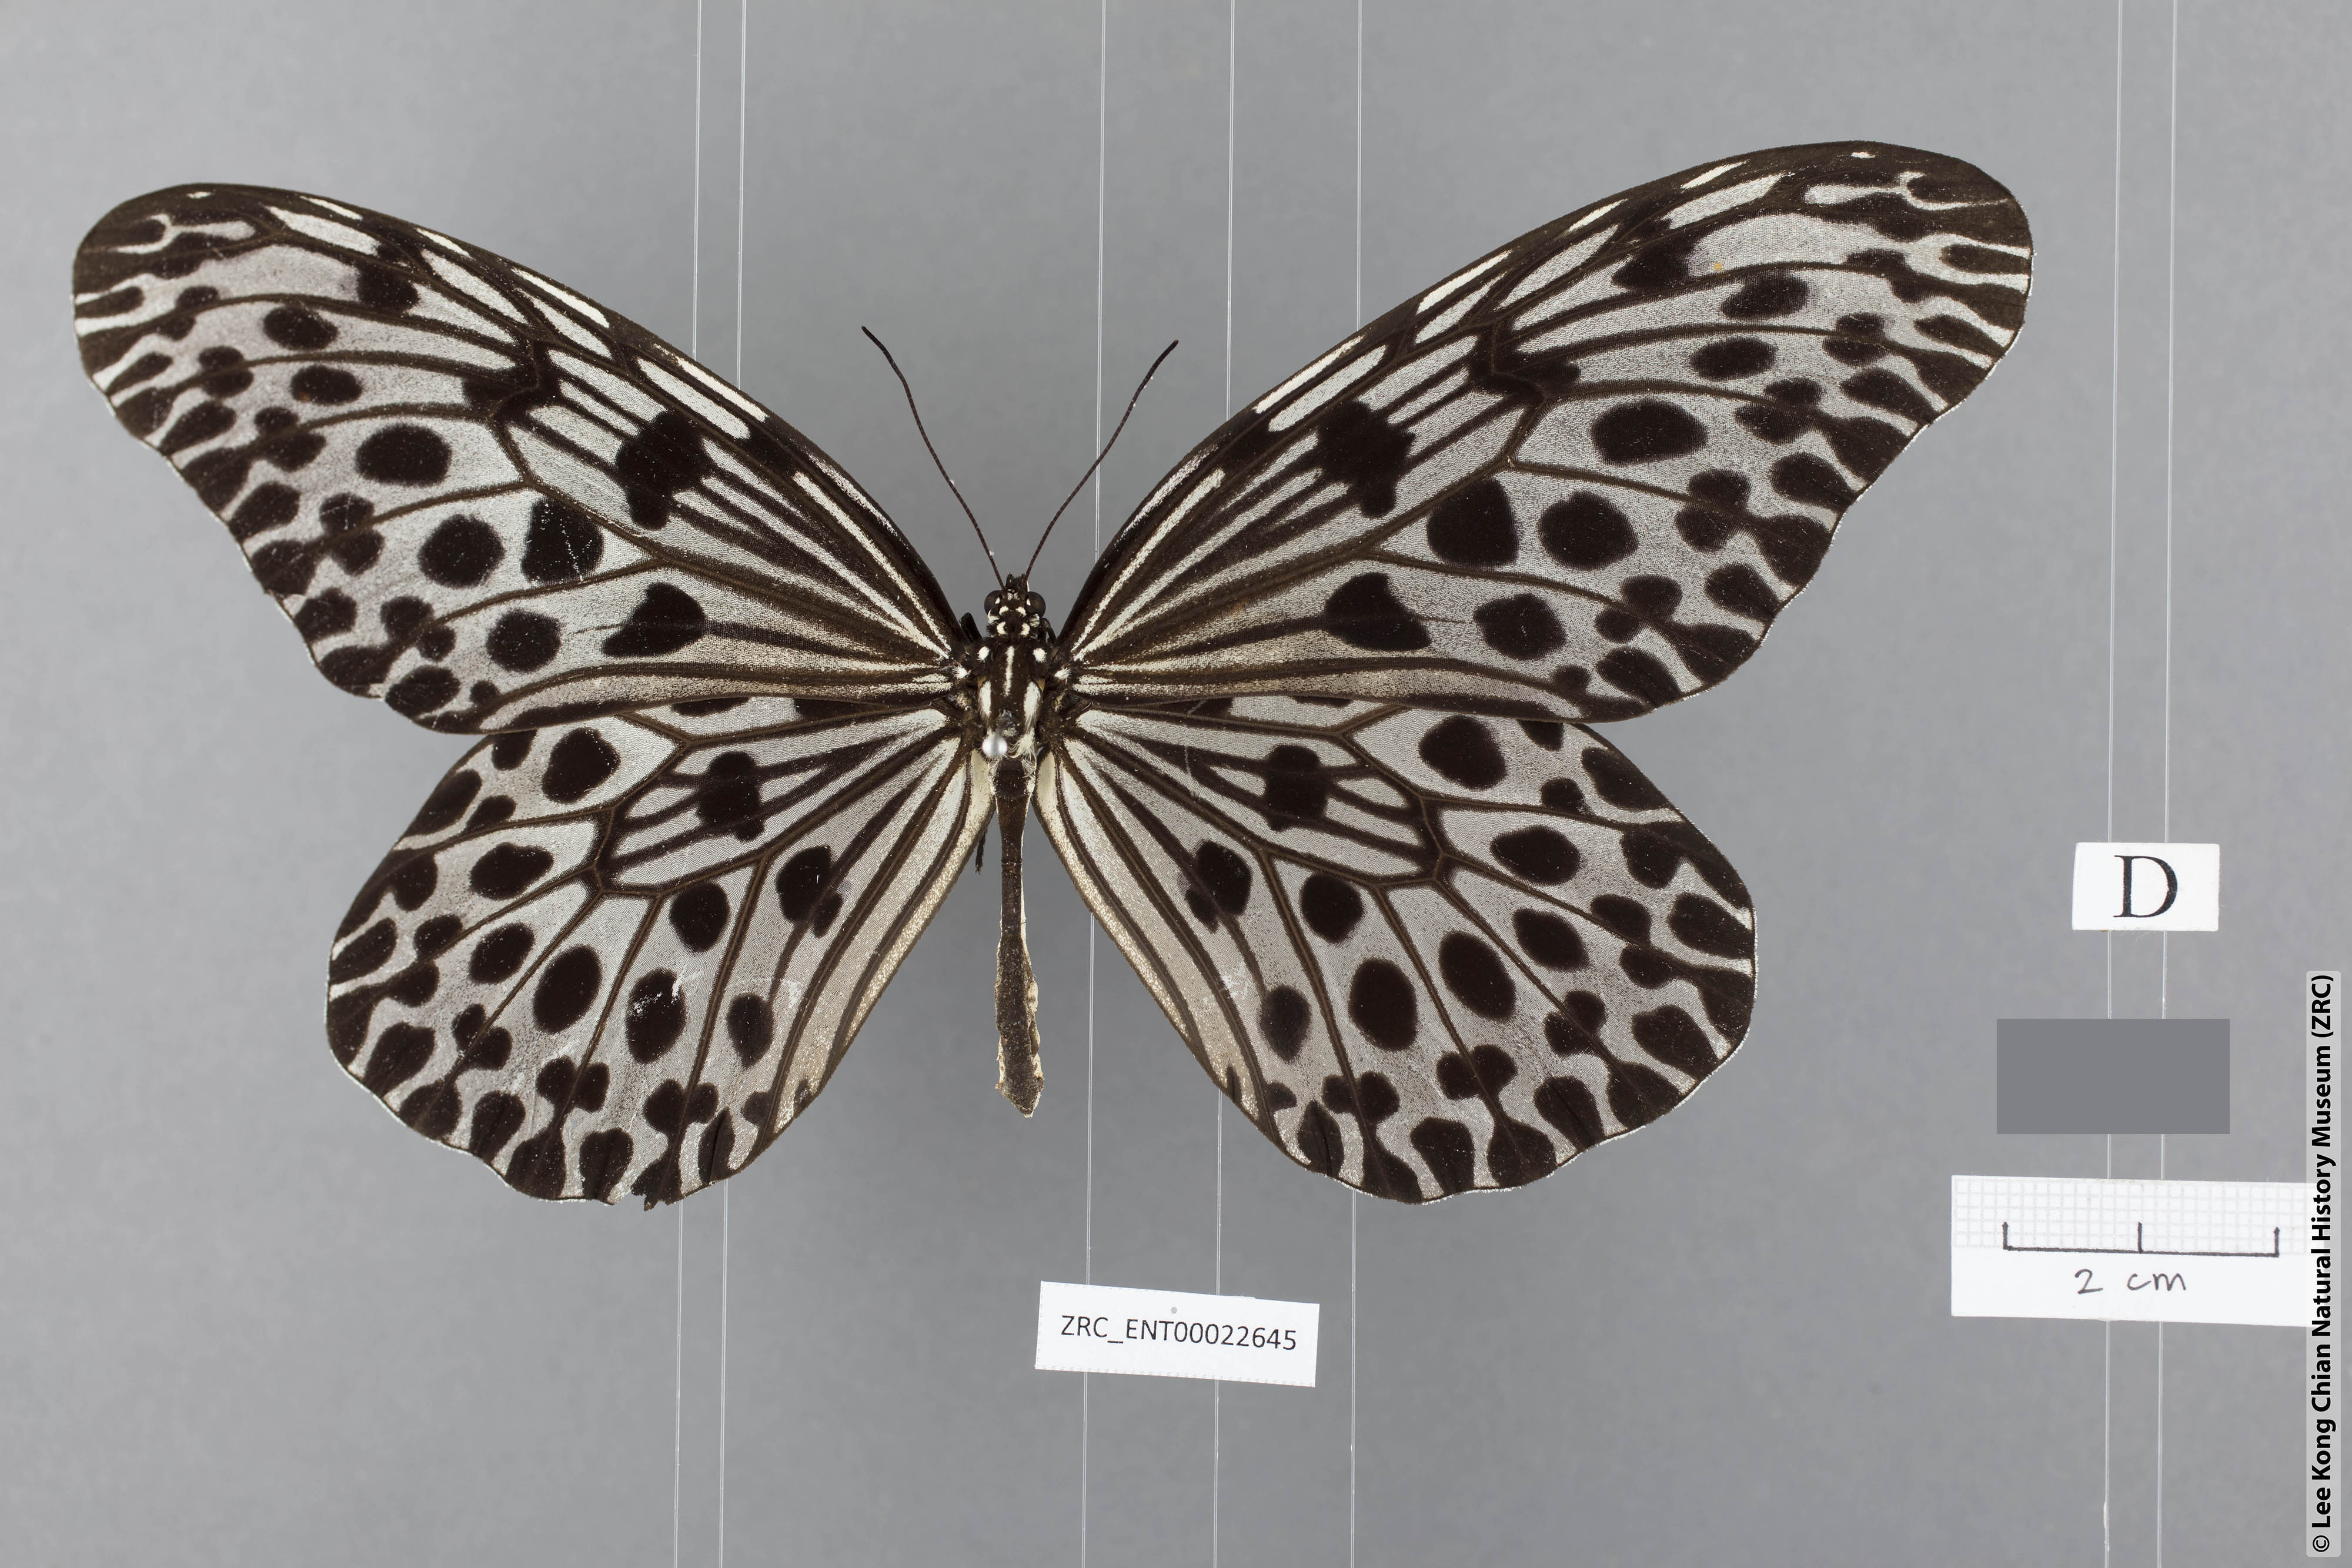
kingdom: Animalia
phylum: Arthropoda
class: Insecta
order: Lepidoptera
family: Nymphalidae
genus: Idea
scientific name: Idea lynceus
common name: Giant tree nymph
